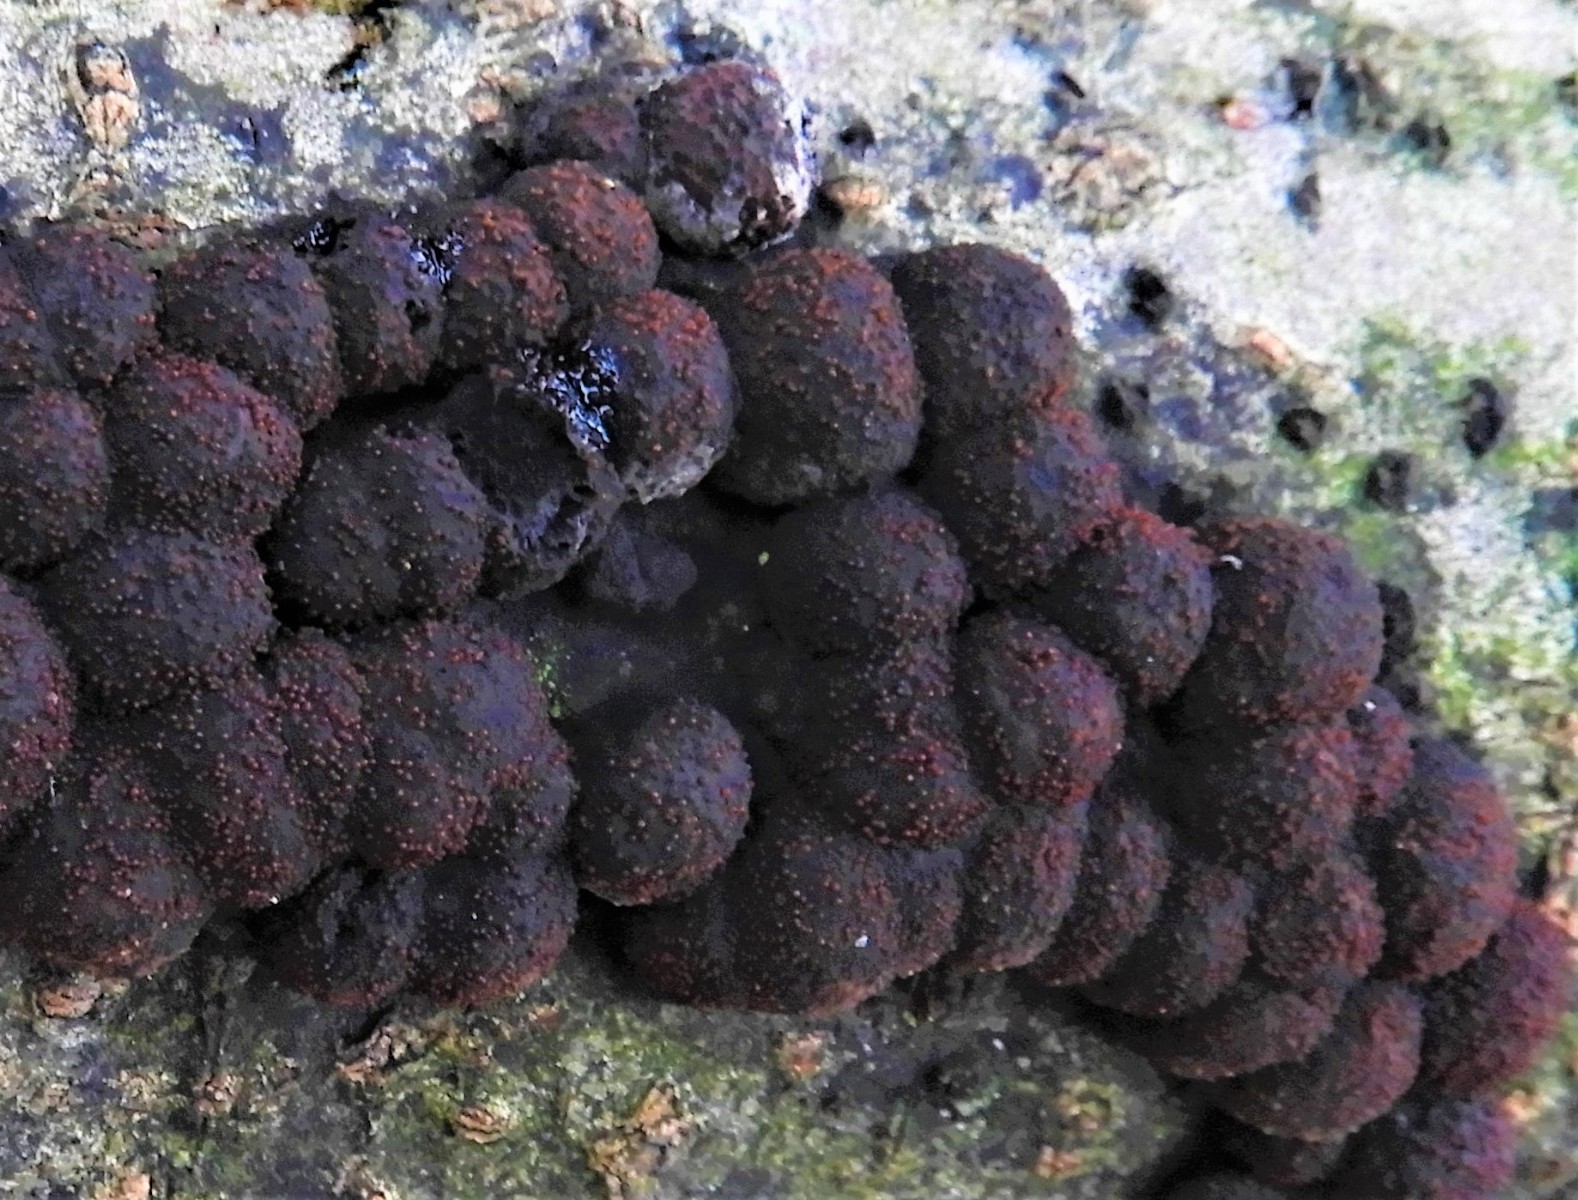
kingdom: Fungi
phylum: Ascomycota
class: Sordariomycetes
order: Hypocreales
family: Nectriaceae
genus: Cosmospora
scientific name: Cosmospora arxii
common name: kuljordbær-cinnobersvamp
